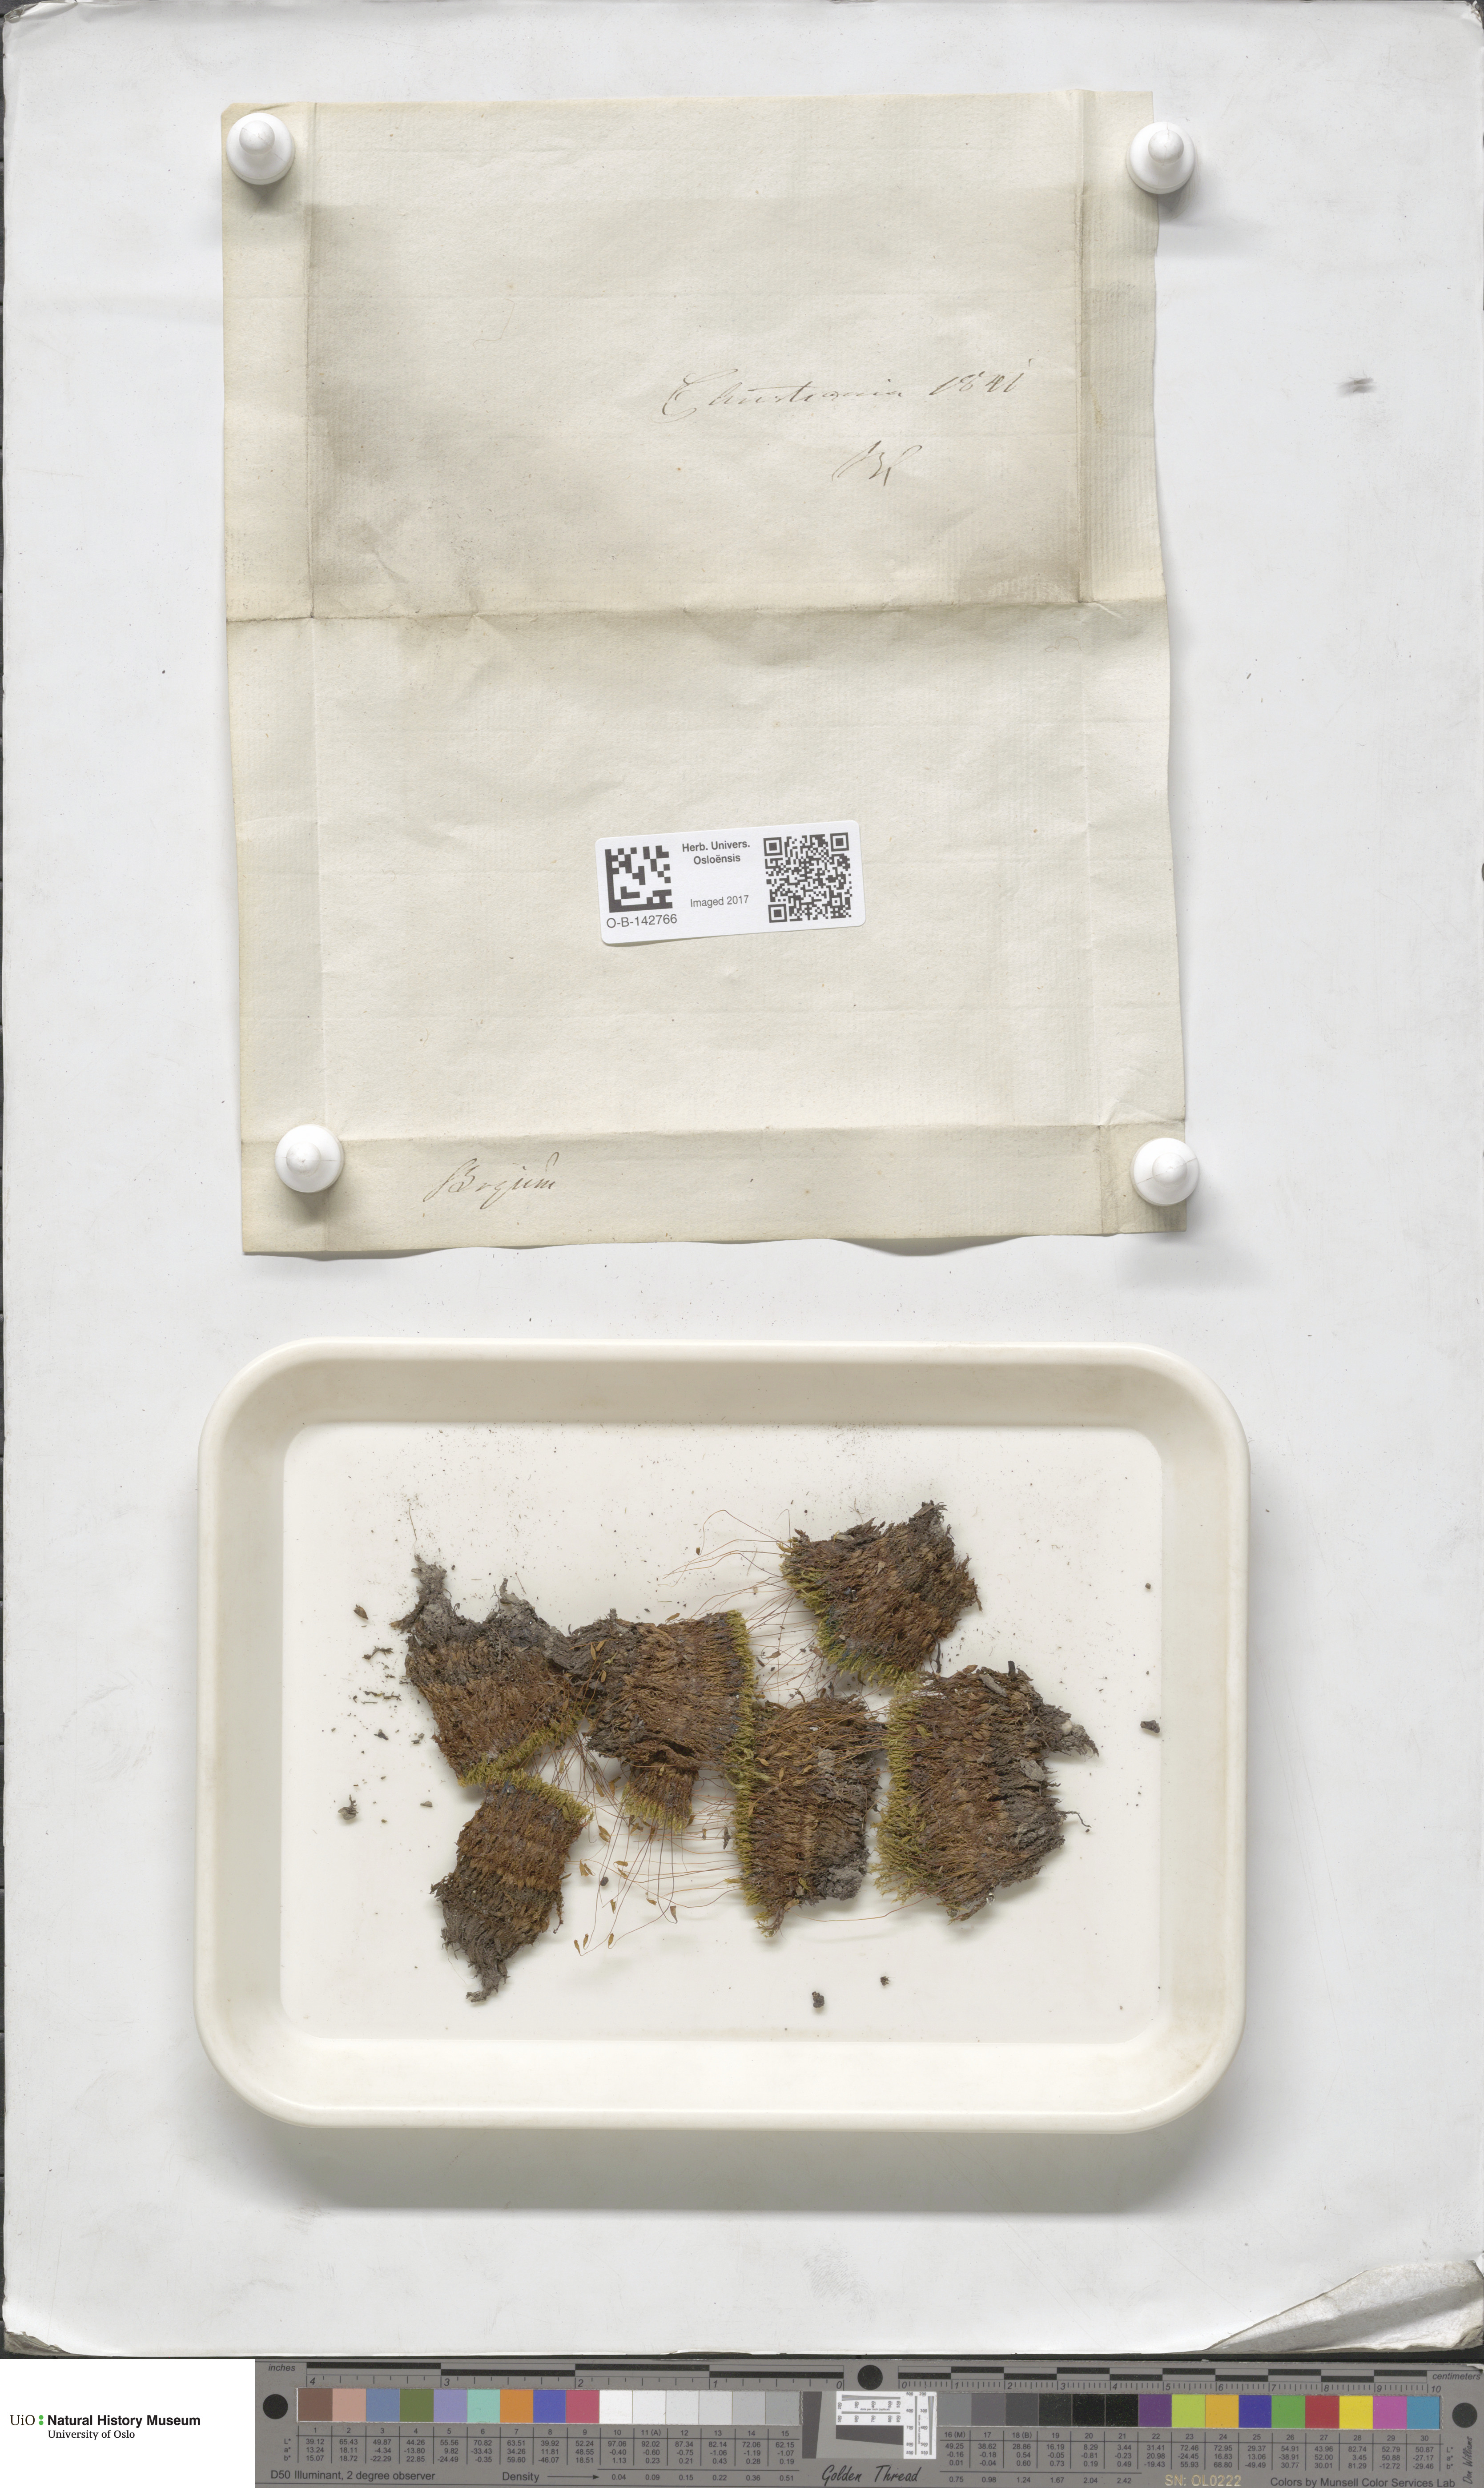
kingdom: Plantae
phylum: Bryophyta
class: Bryopsida
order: Bryales
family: Bryaceae
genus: Bryum
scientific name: Bryum
